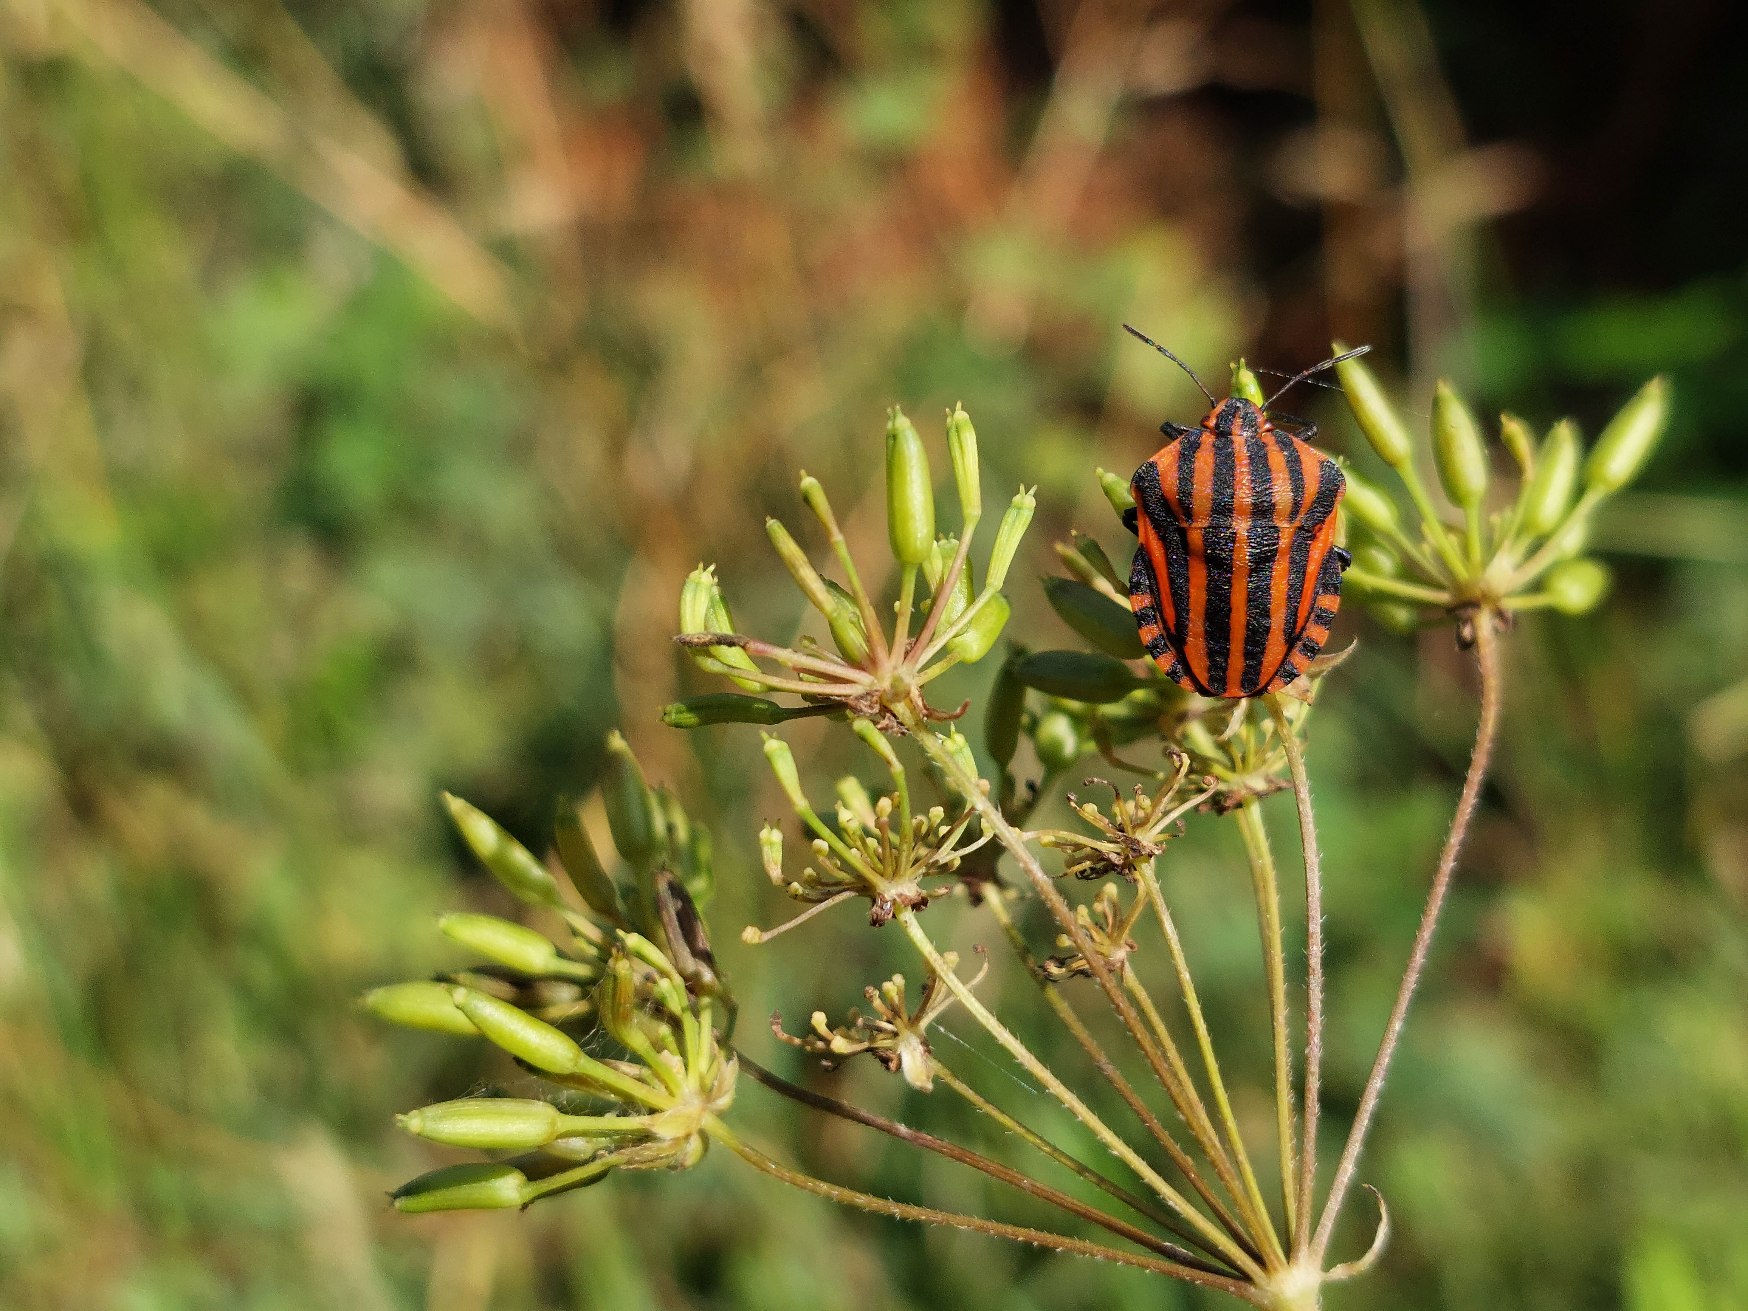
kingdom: Animalia
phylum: Arthropoda
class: Insecta
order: Hemiptera
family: Pentatomidae
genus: Graphosoma
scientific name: Graphosoma italicum
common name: Stribetæge
